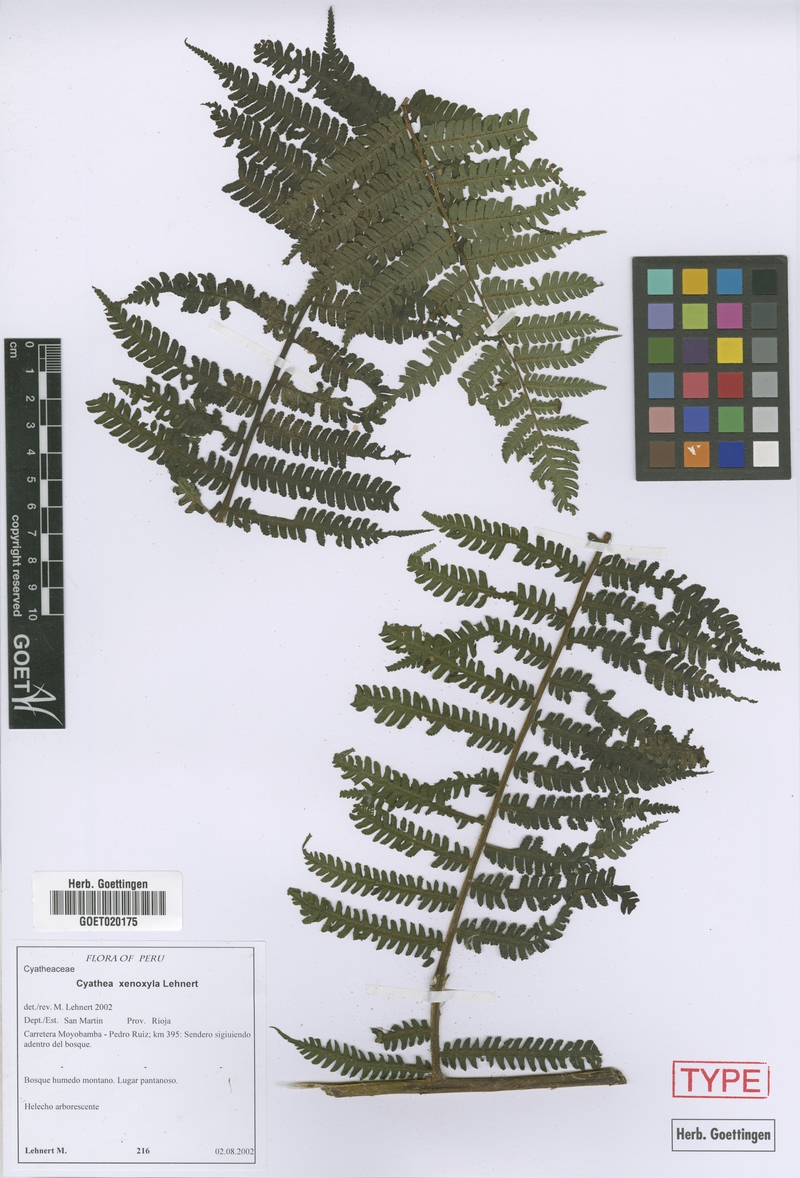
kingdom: Plantae
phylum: Tracheophyta
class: Polypodiopsida
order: Cyatheales
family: Cyatheaceae
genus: Cyathea
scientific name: Cyathea planadae
